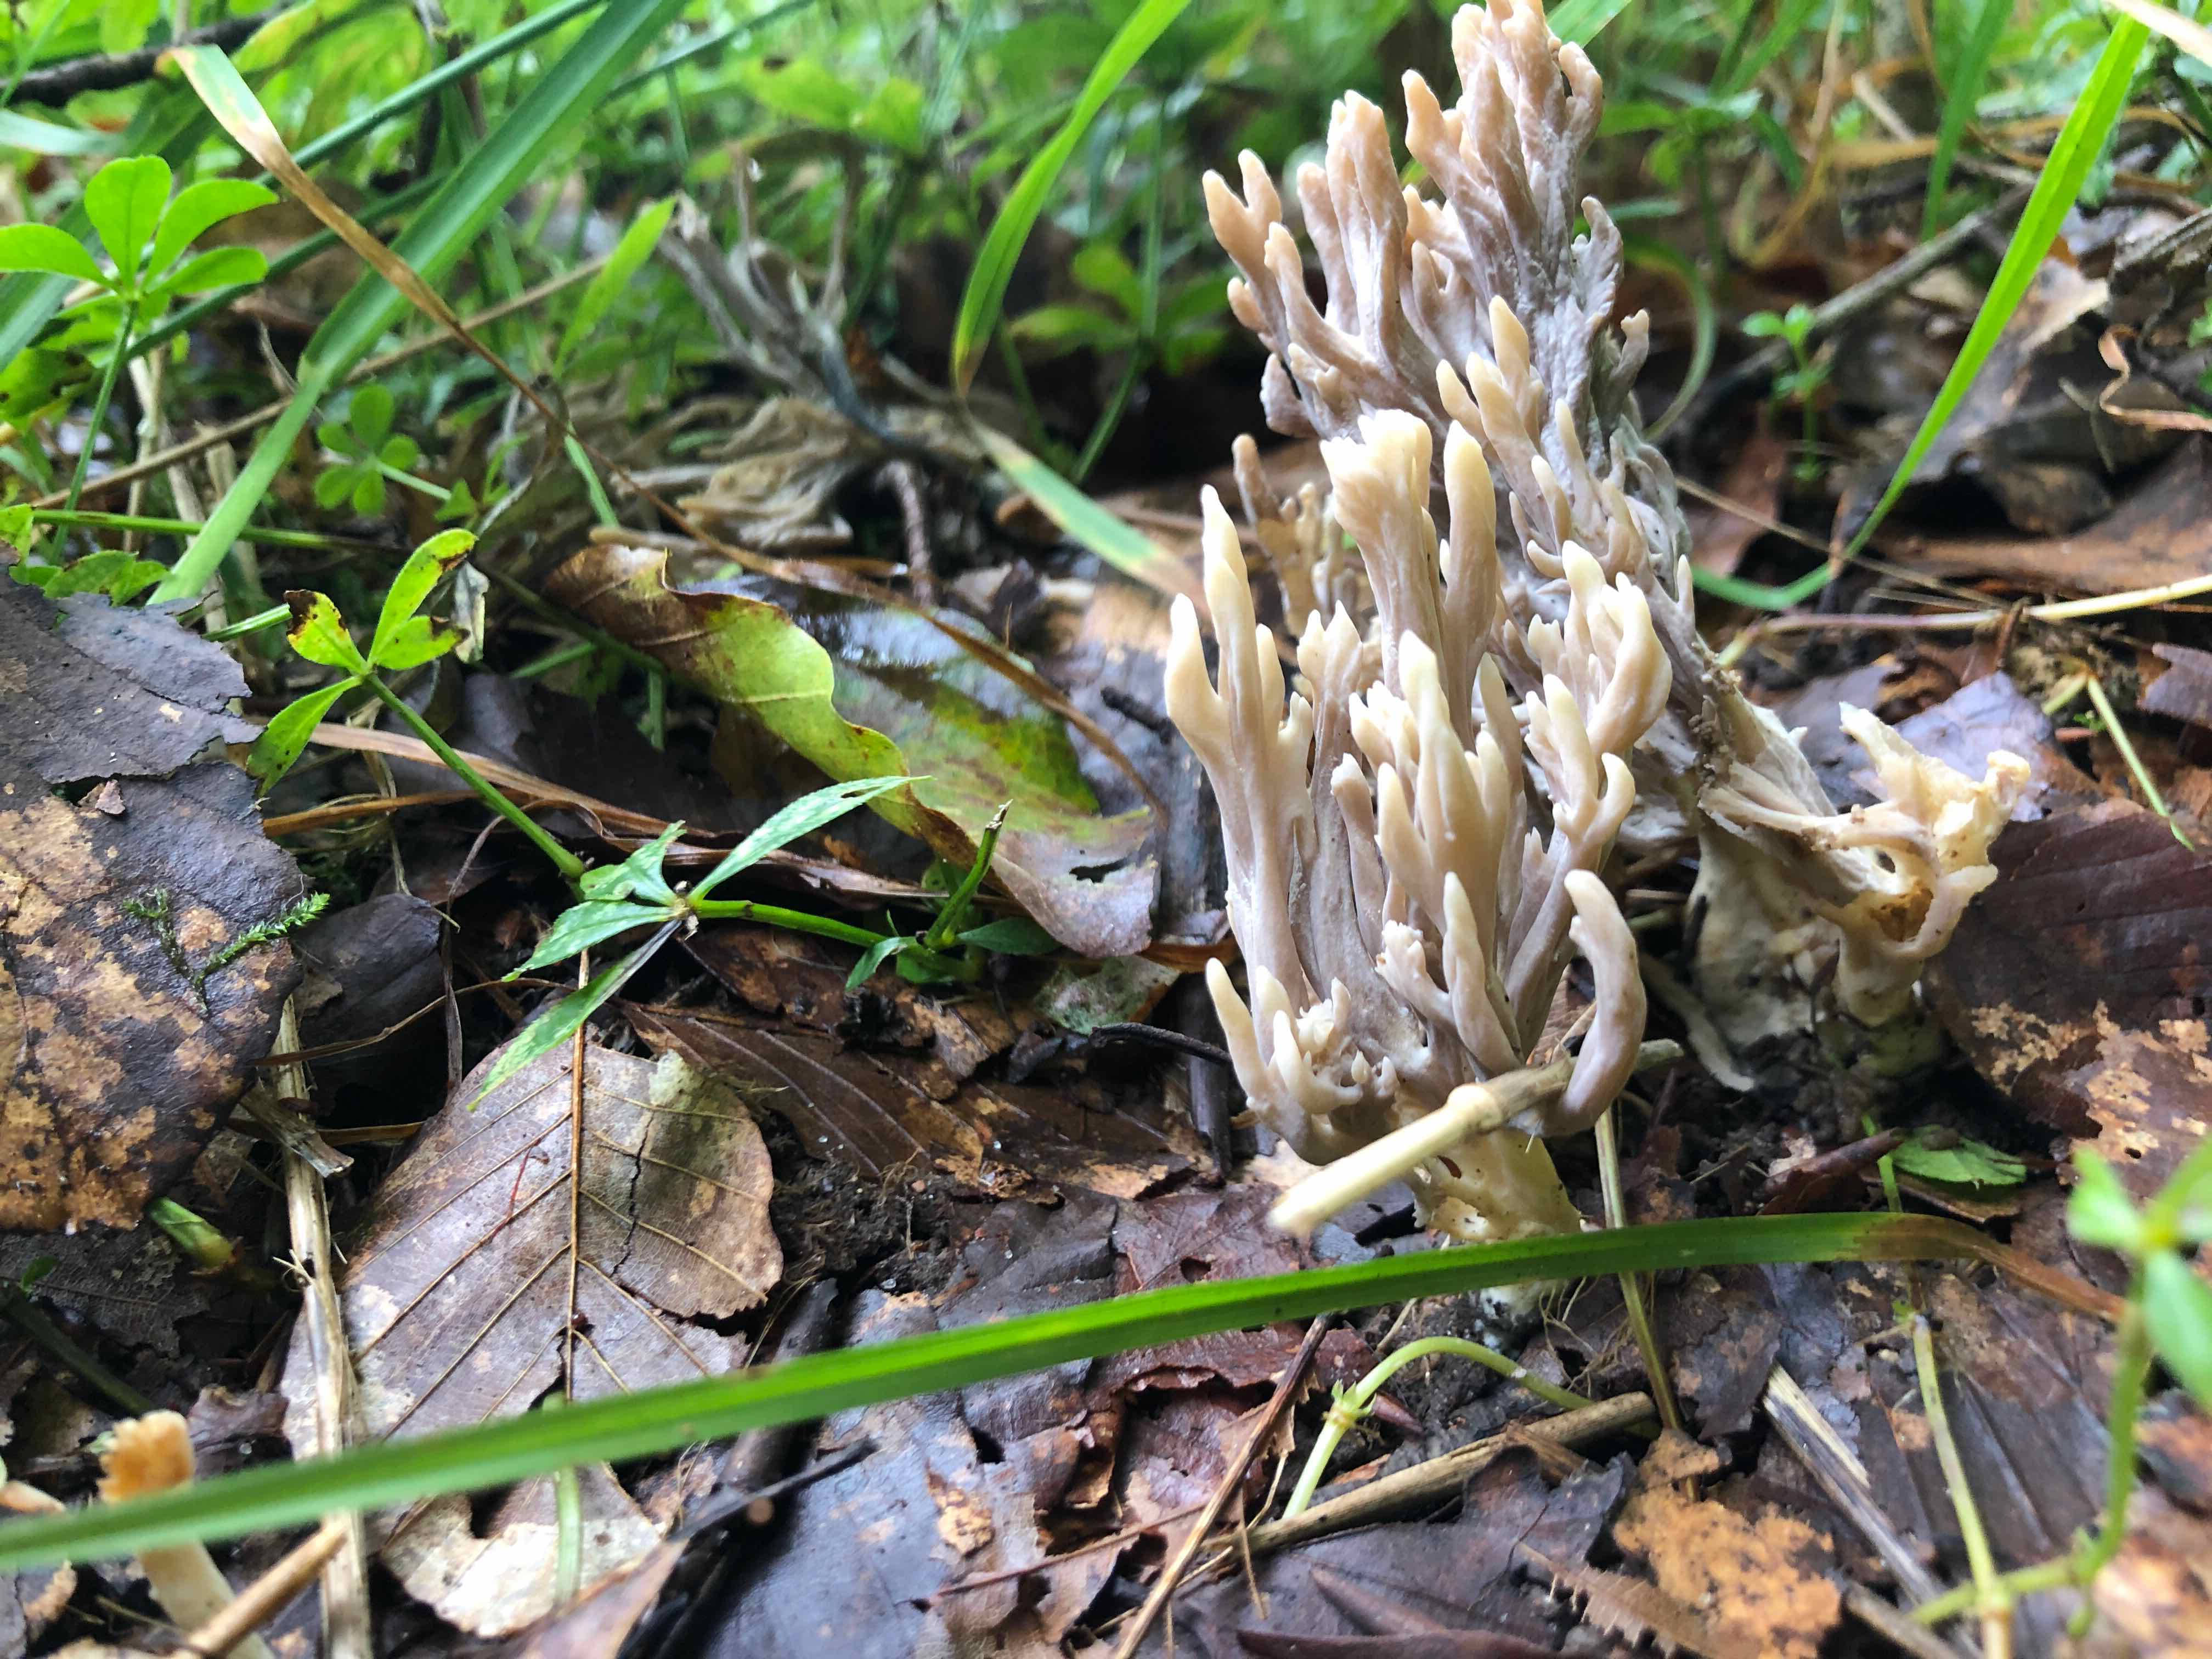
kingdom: Fungi
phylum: Basidiomycota
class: Agaricomycetes
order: Cantharellales
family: Hydnaceae
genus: Clavulina
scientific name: Clavulina
